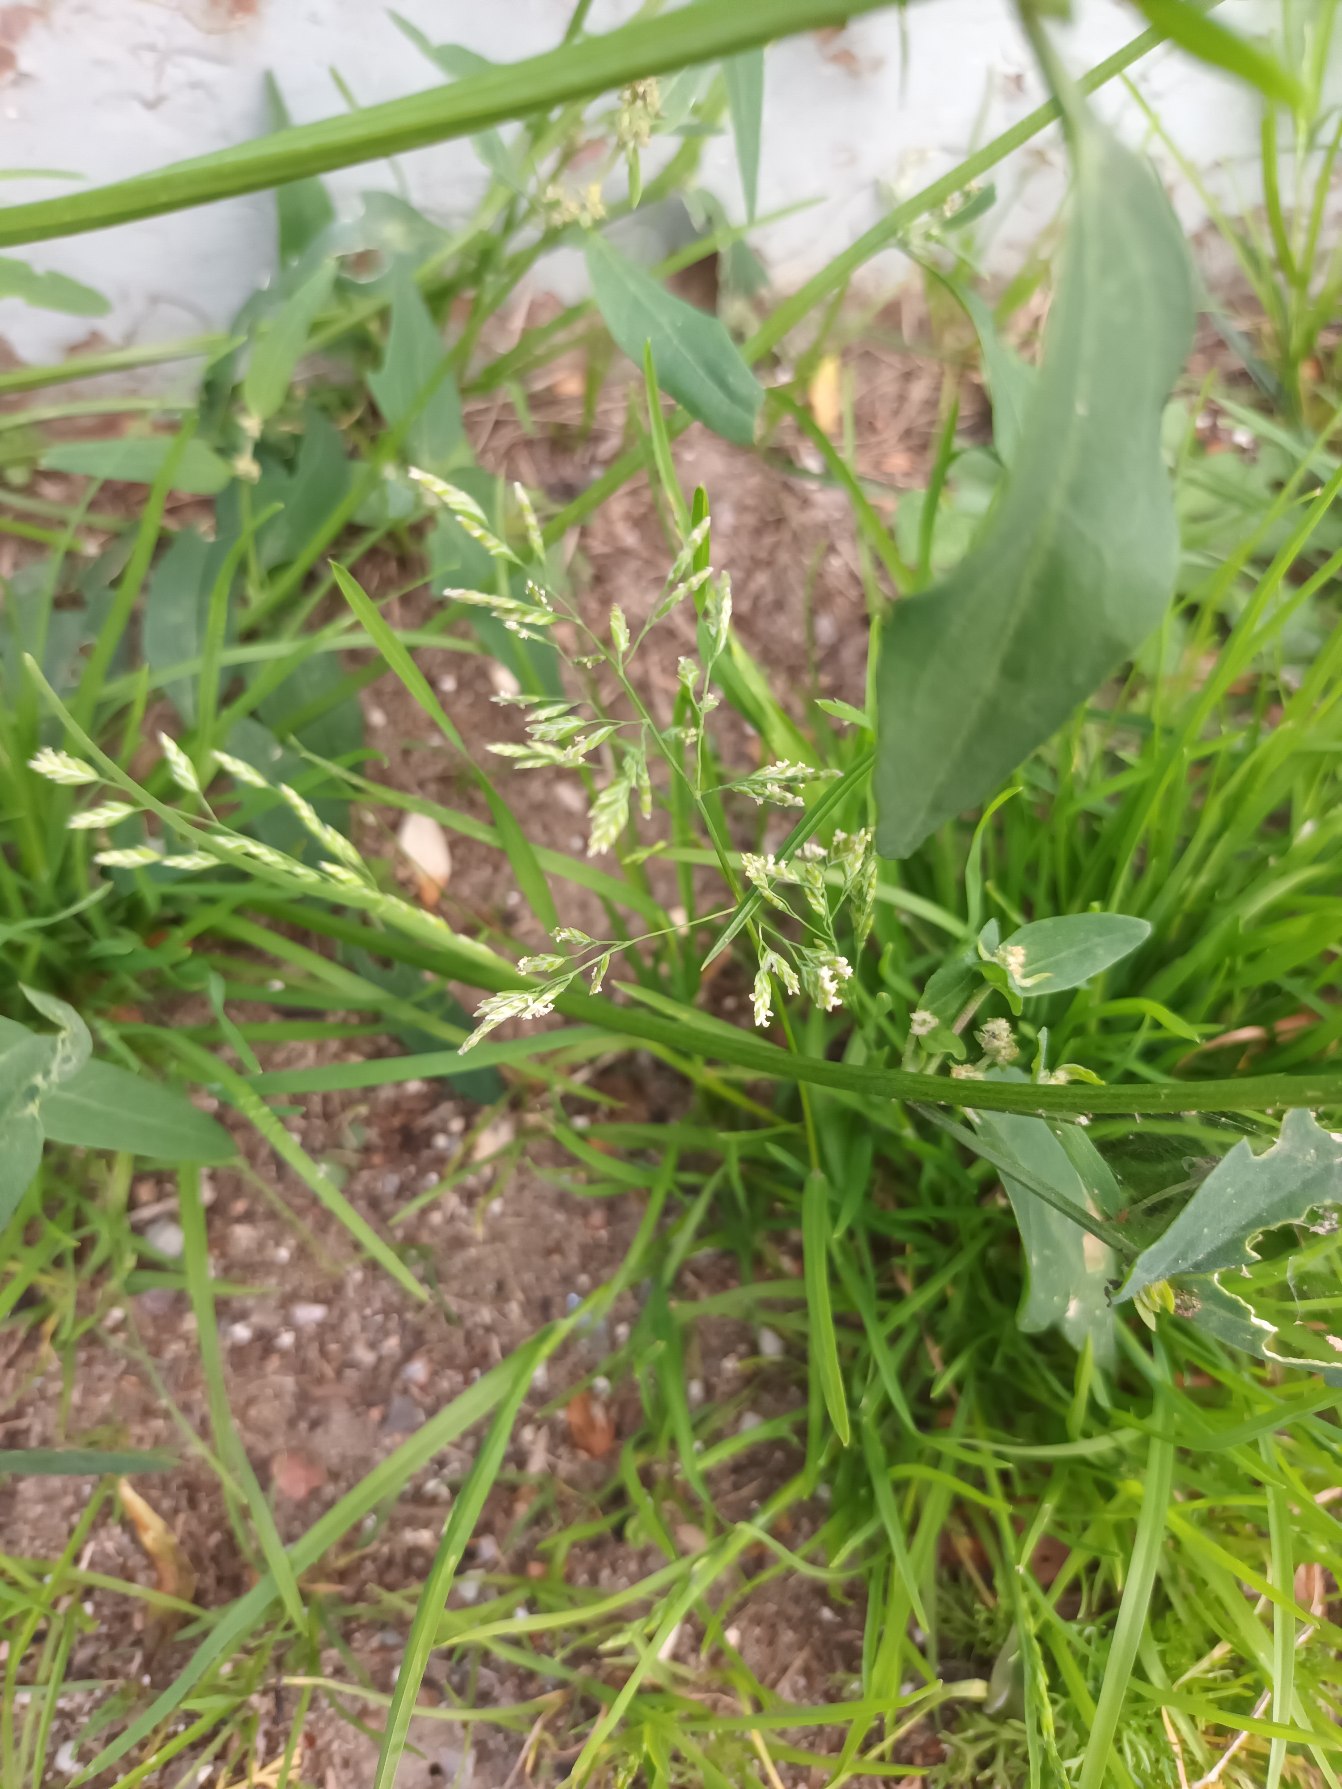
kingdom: Plantae
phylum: Tracheophyta
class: Liliopsida
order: Poales
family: Poaceae
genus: Poa
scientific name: Poa annua
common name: Enårig rapgræs
